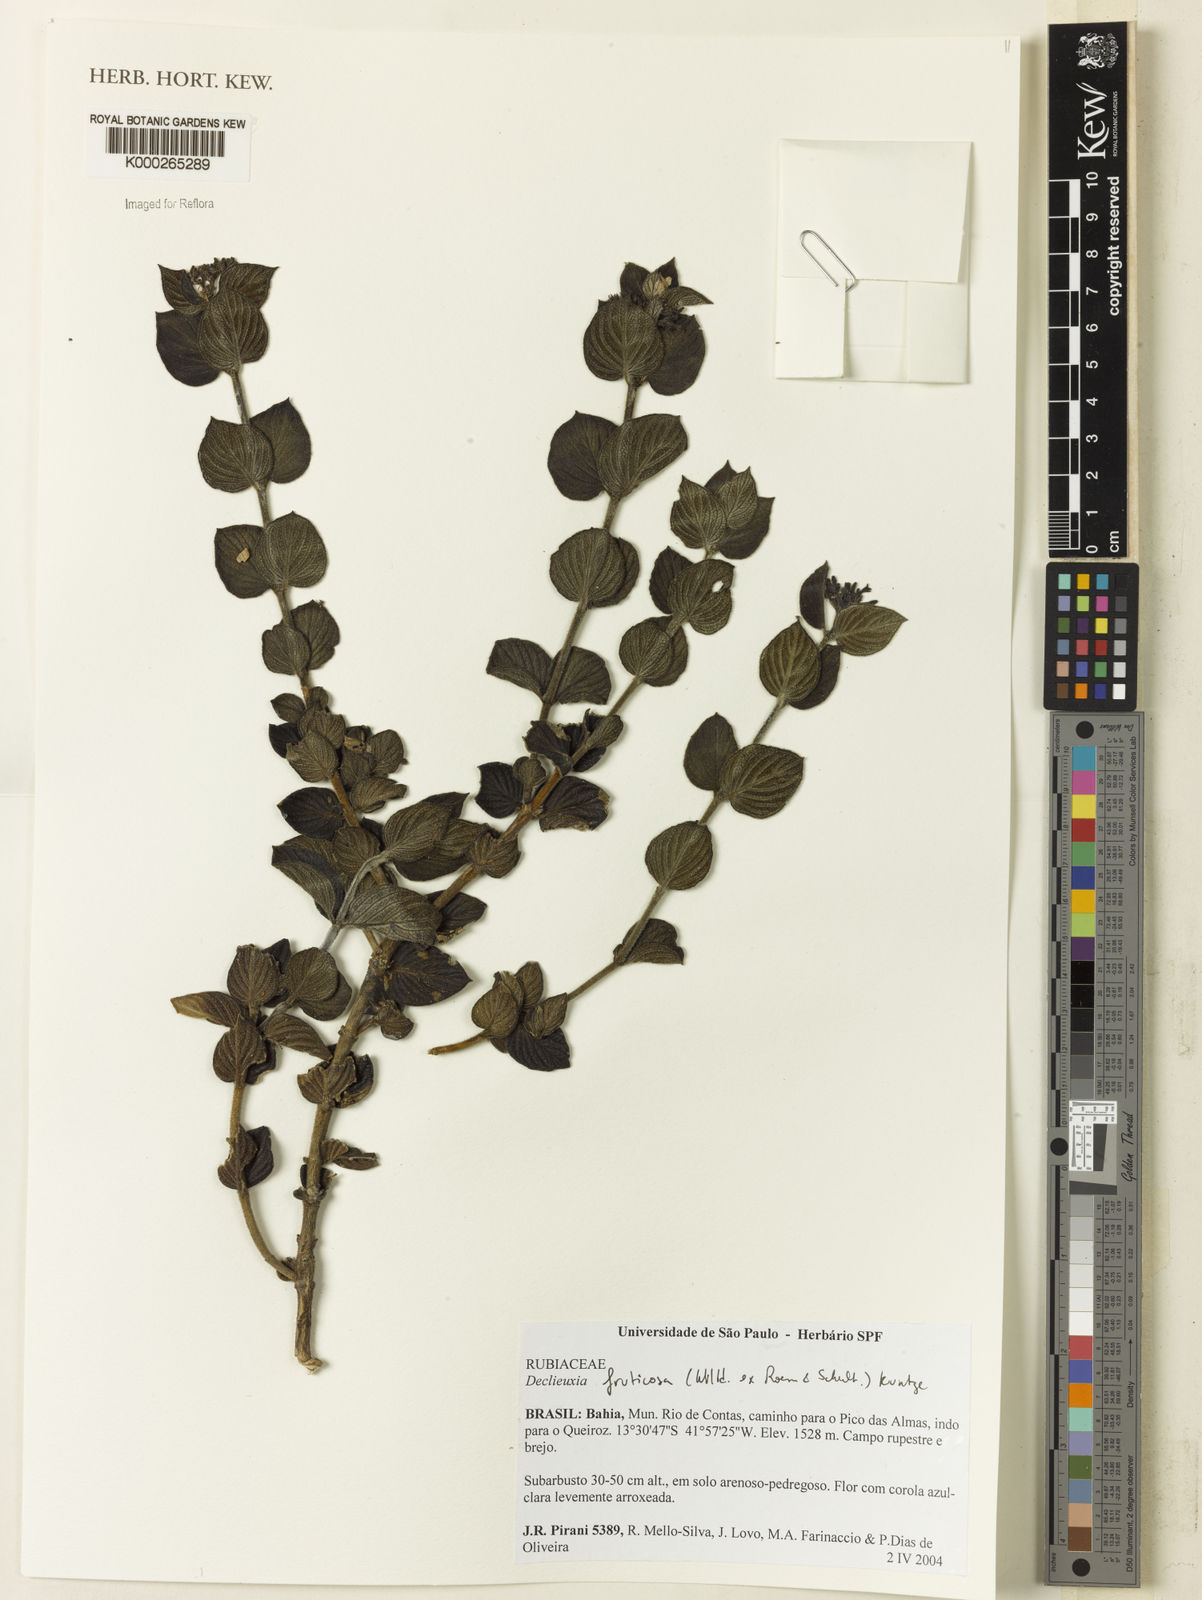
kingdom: Plantae
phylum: Tracheophyta
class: Magnoliopsida
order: Gentianales
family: Rubiaceae
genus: Declieuxia
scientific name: Declieuxia fruticosa
